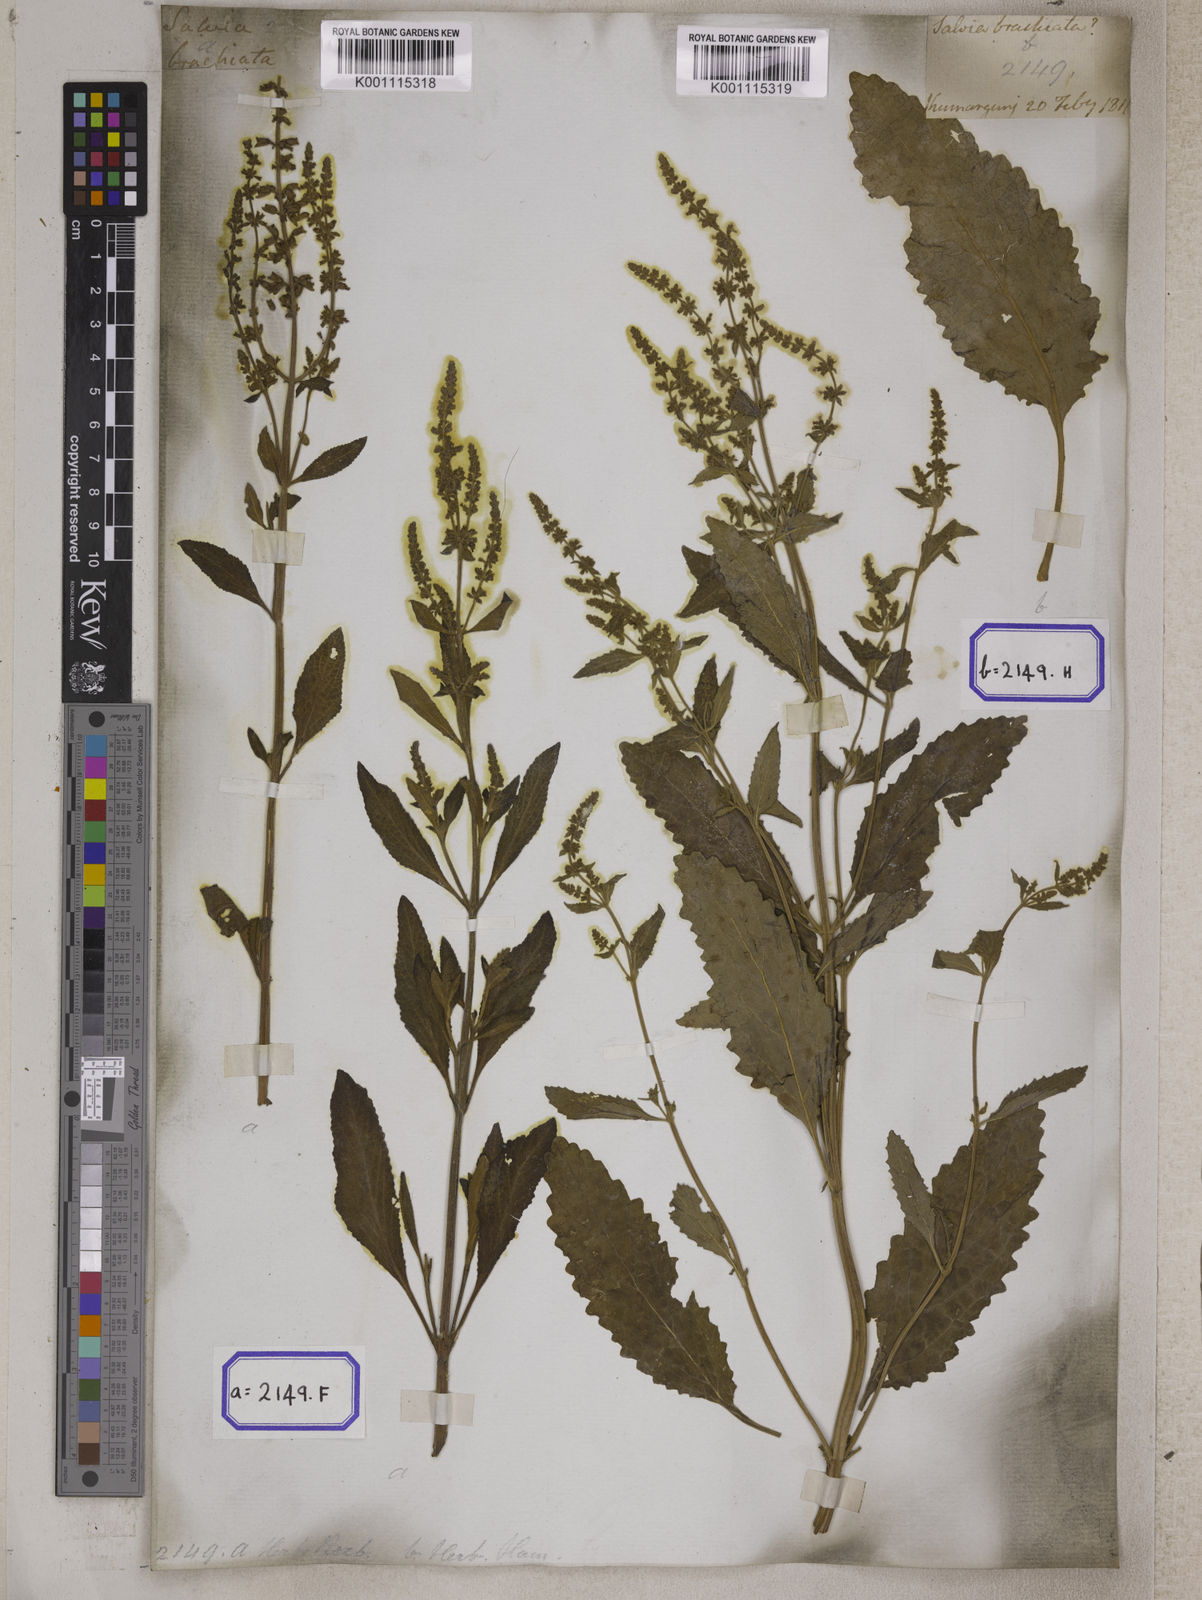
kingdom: Plantae
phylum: Tracheophyta
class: Magnoliopsida
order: Lamiales
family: Lamiaceae
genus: Salvia
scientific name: Salvia plebeia
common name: Australian sage
